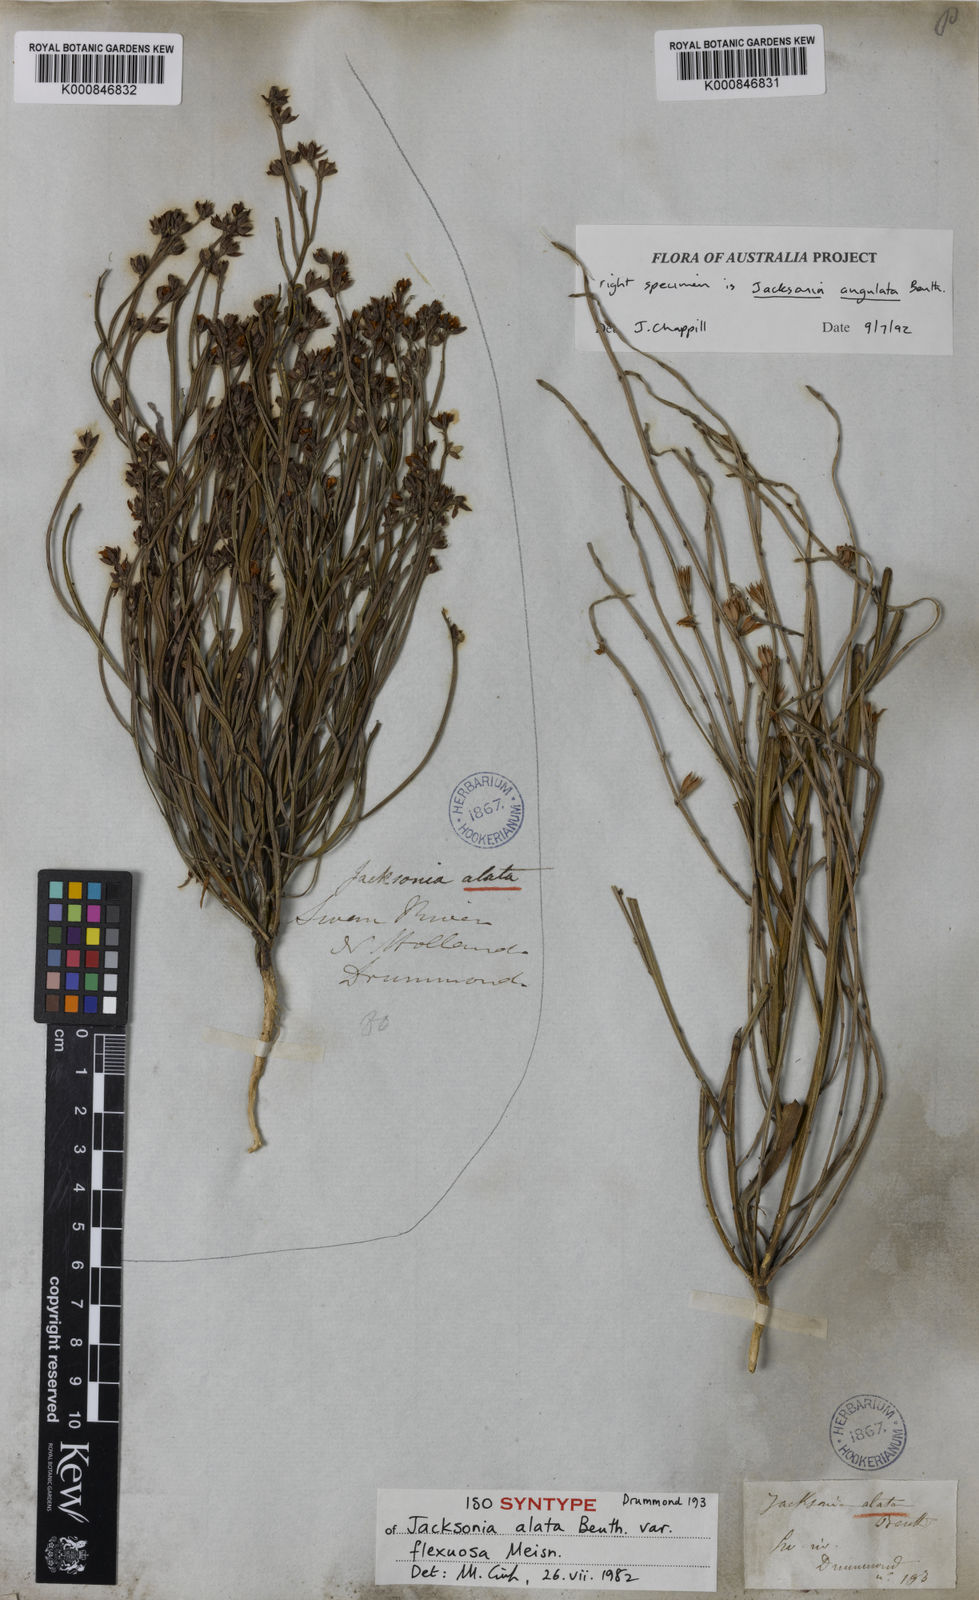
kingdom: Plantae
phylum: Tracheophyta
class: Magnoliopsida
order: Fabales
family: Fabaceae
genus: Jacksonia
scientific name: Jacksonia alata
